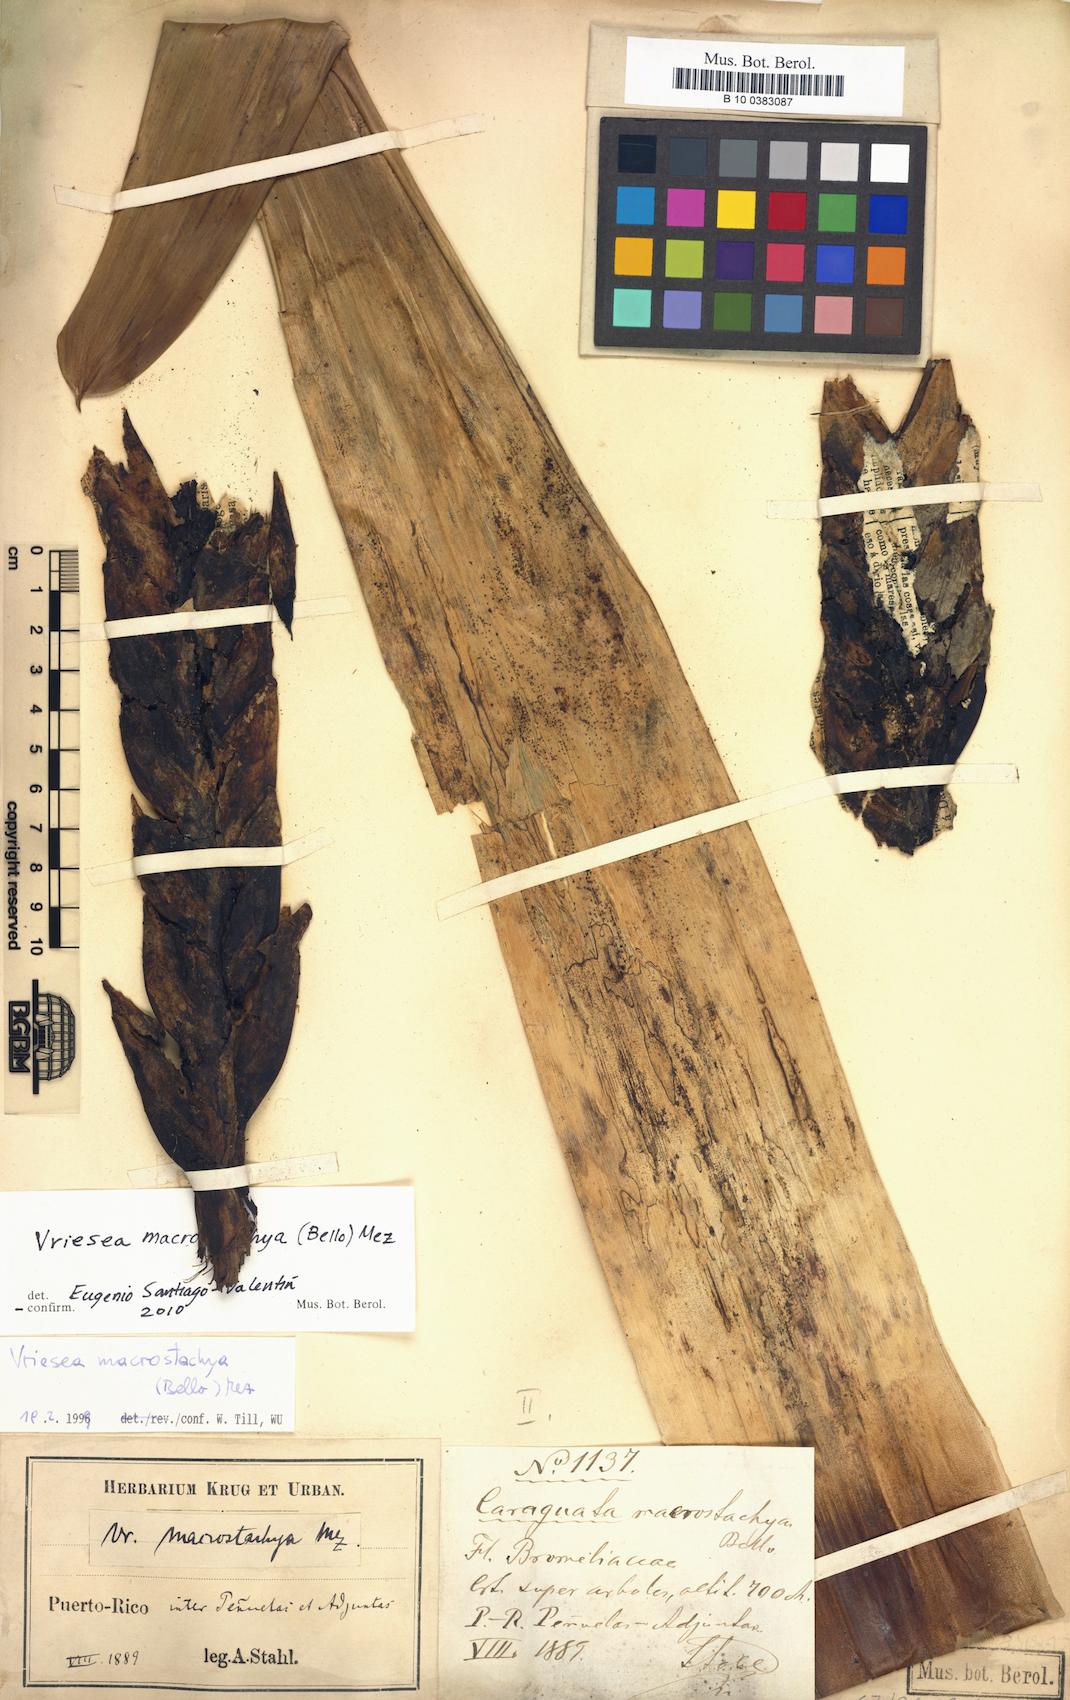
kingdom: Plantae
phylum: Tracheophyta
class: Liliopsida
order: Poales
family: Bromeliaceae
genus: Vriesea
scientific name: Vriesea macrostachya
